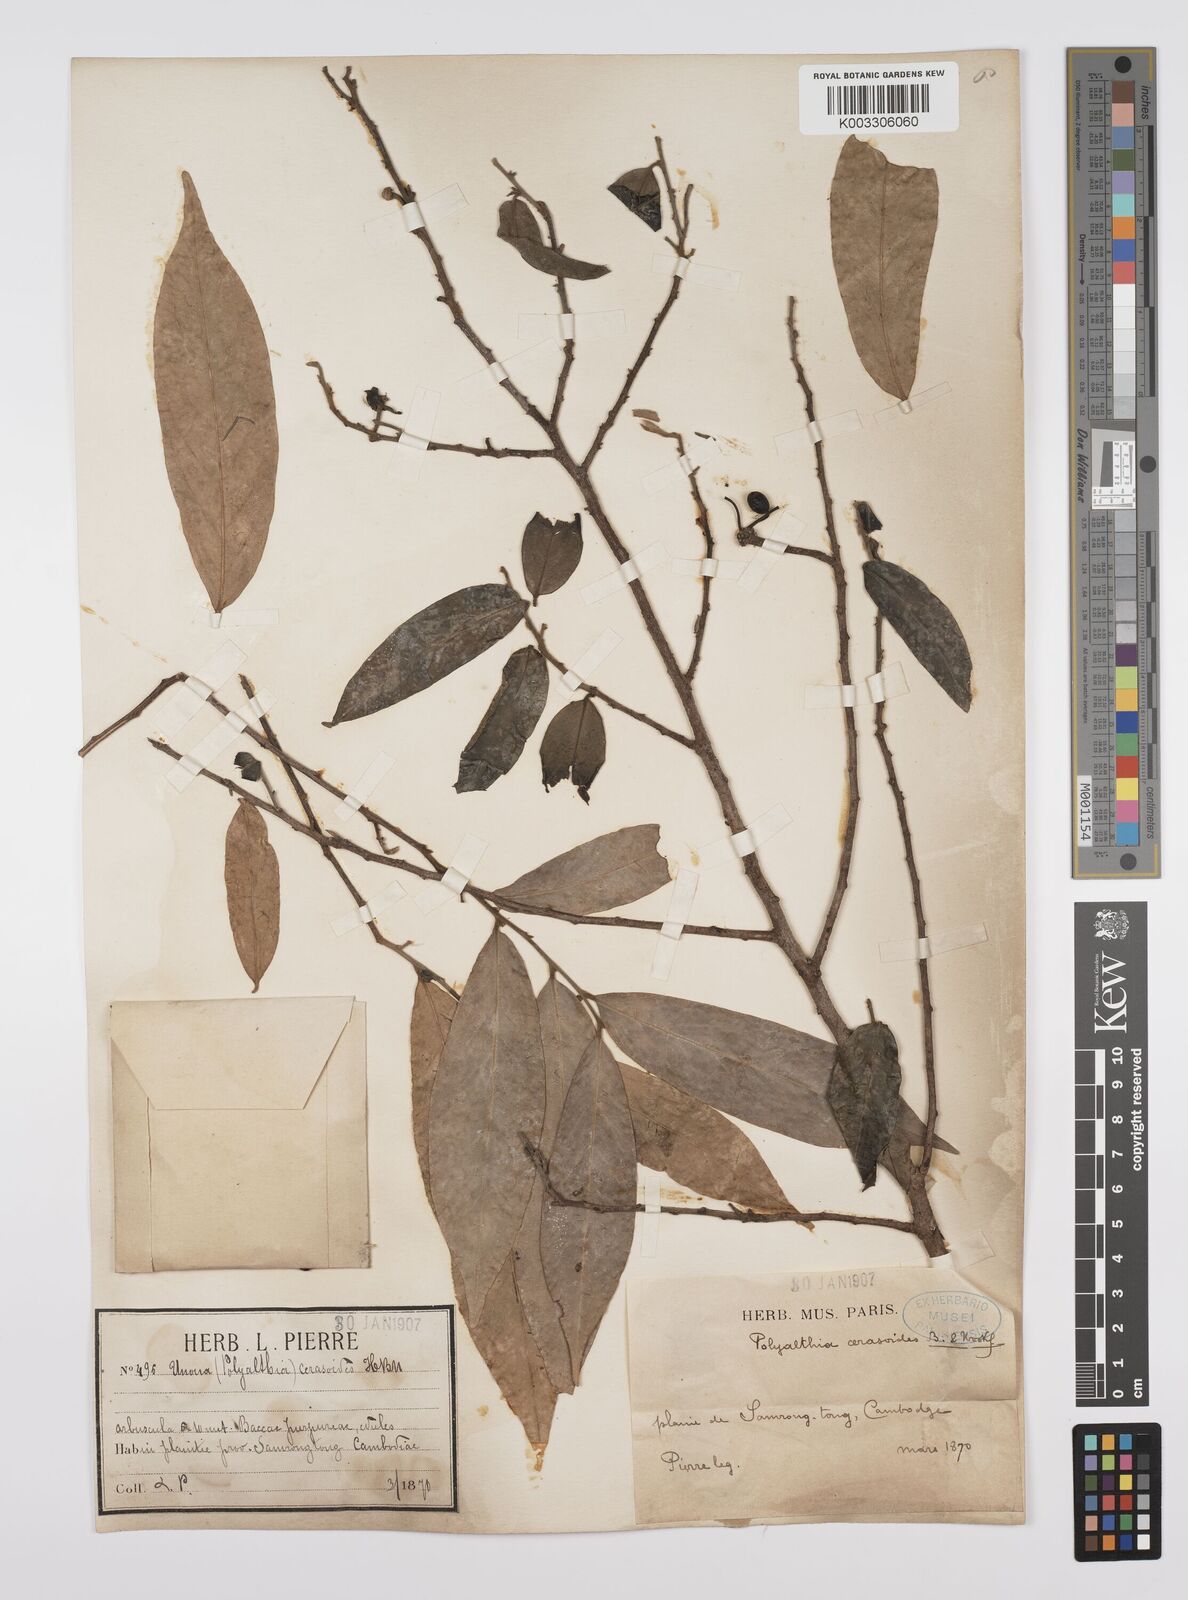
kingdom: Plantae
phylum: Tracheophyta
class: Magnoliopsida
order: Magnoliales
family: Annonaceae
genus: Hubera
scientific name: Hubera cerasoides
